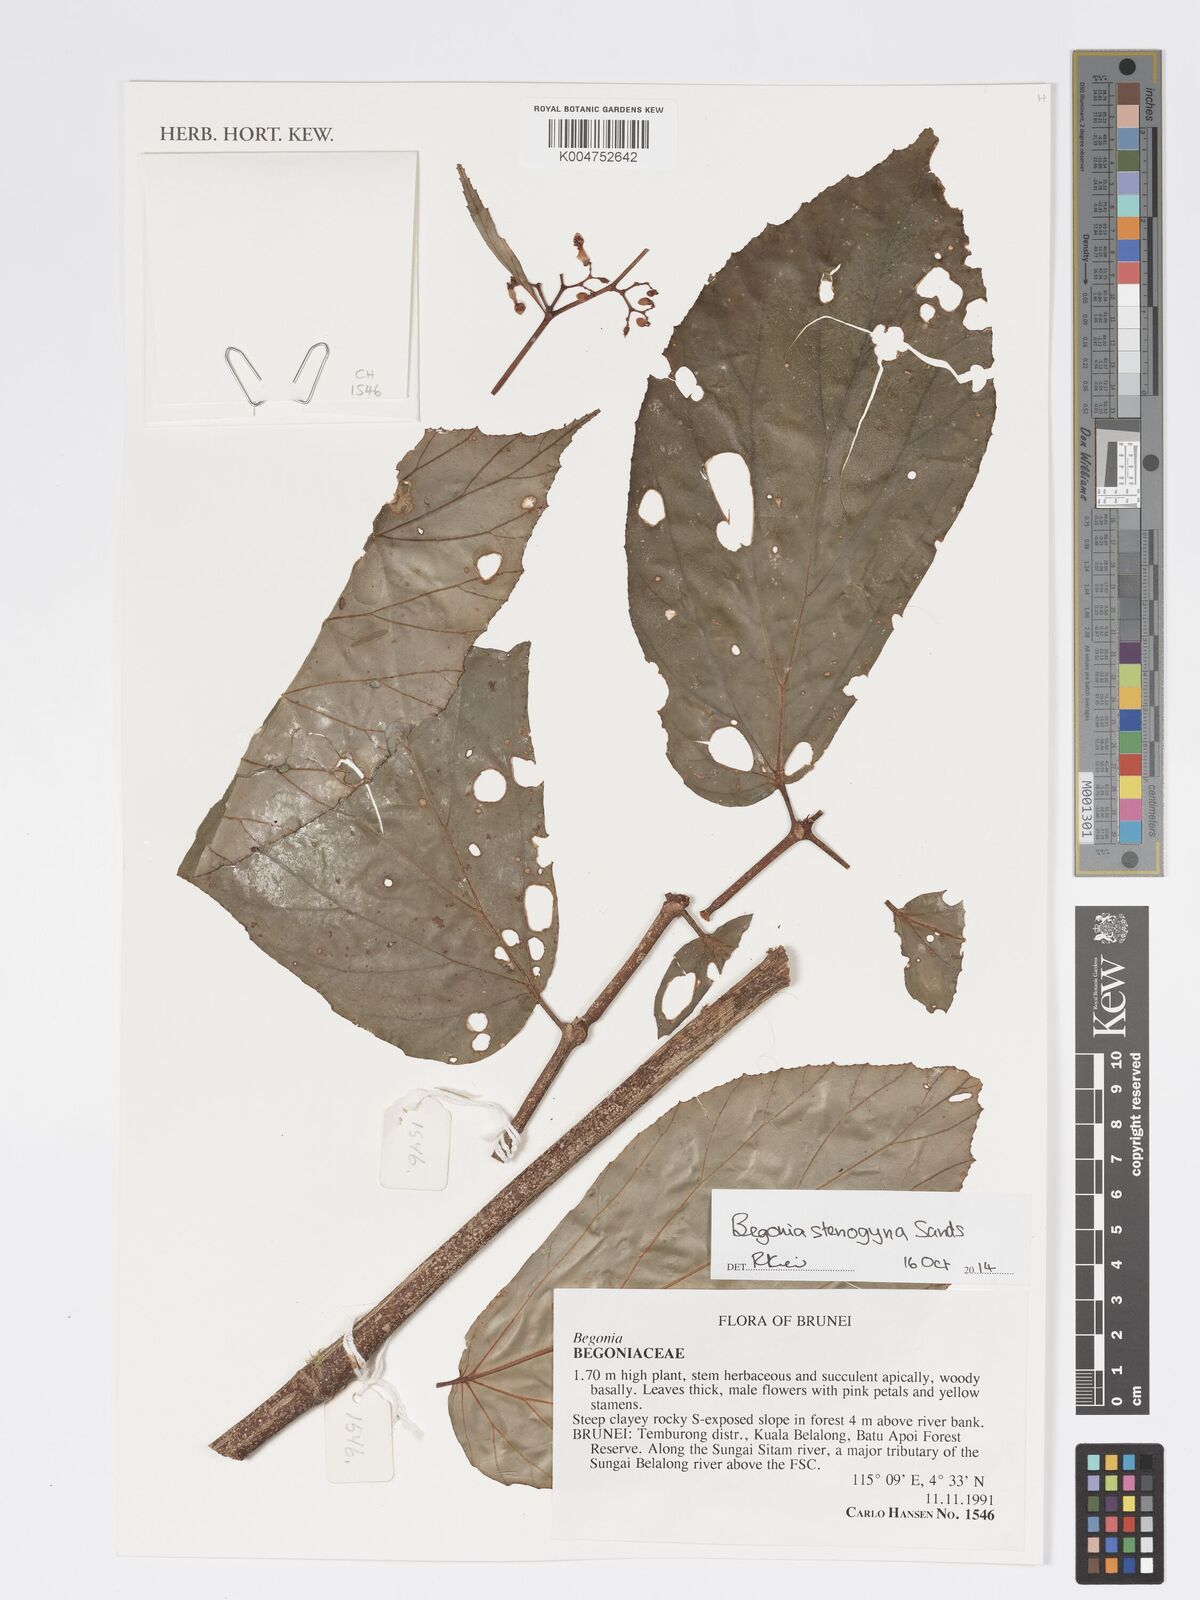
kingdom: Plantae
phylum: Tracheophyta
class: Magnoliopsida
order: Cucurbitales
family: Begoniaceae
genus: Begonia
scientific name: Begonia stenogyna
